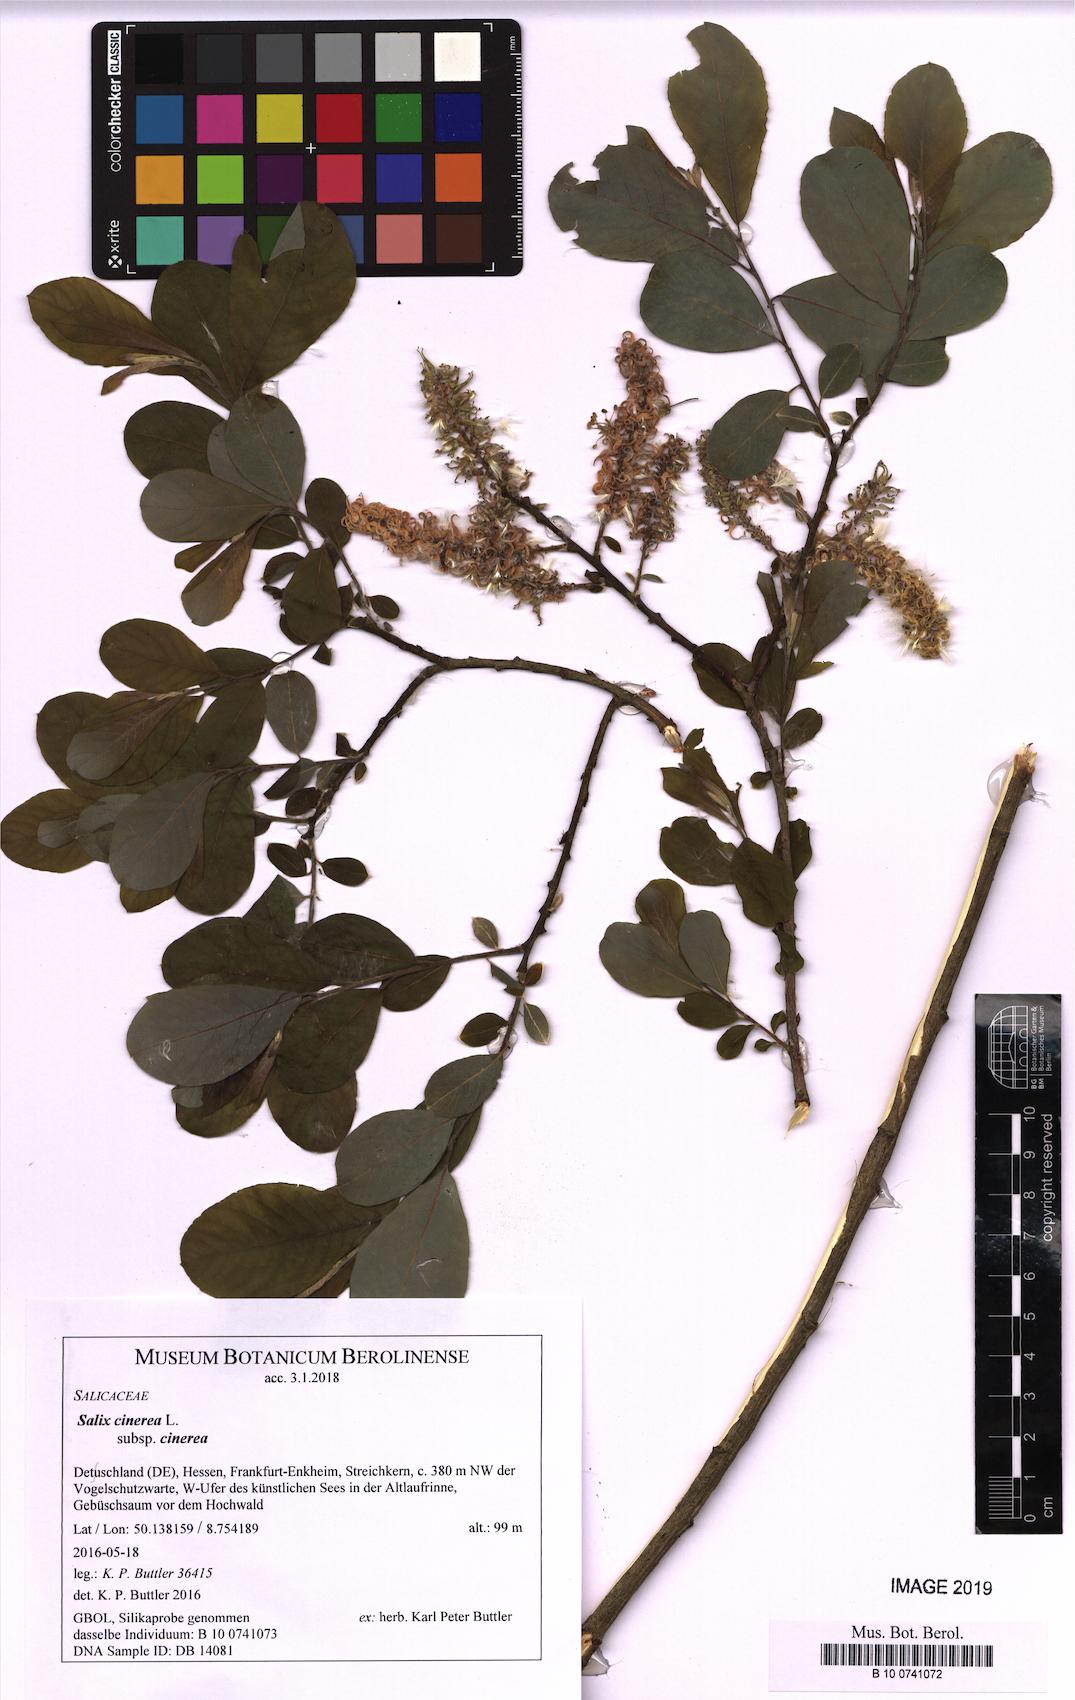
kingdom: Plantae
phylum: Tracheophyta
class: Magnoliopsida
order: Malpighiales
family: Salicaceae
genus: Salix
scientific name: Salix cinerea
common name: Common sallow
